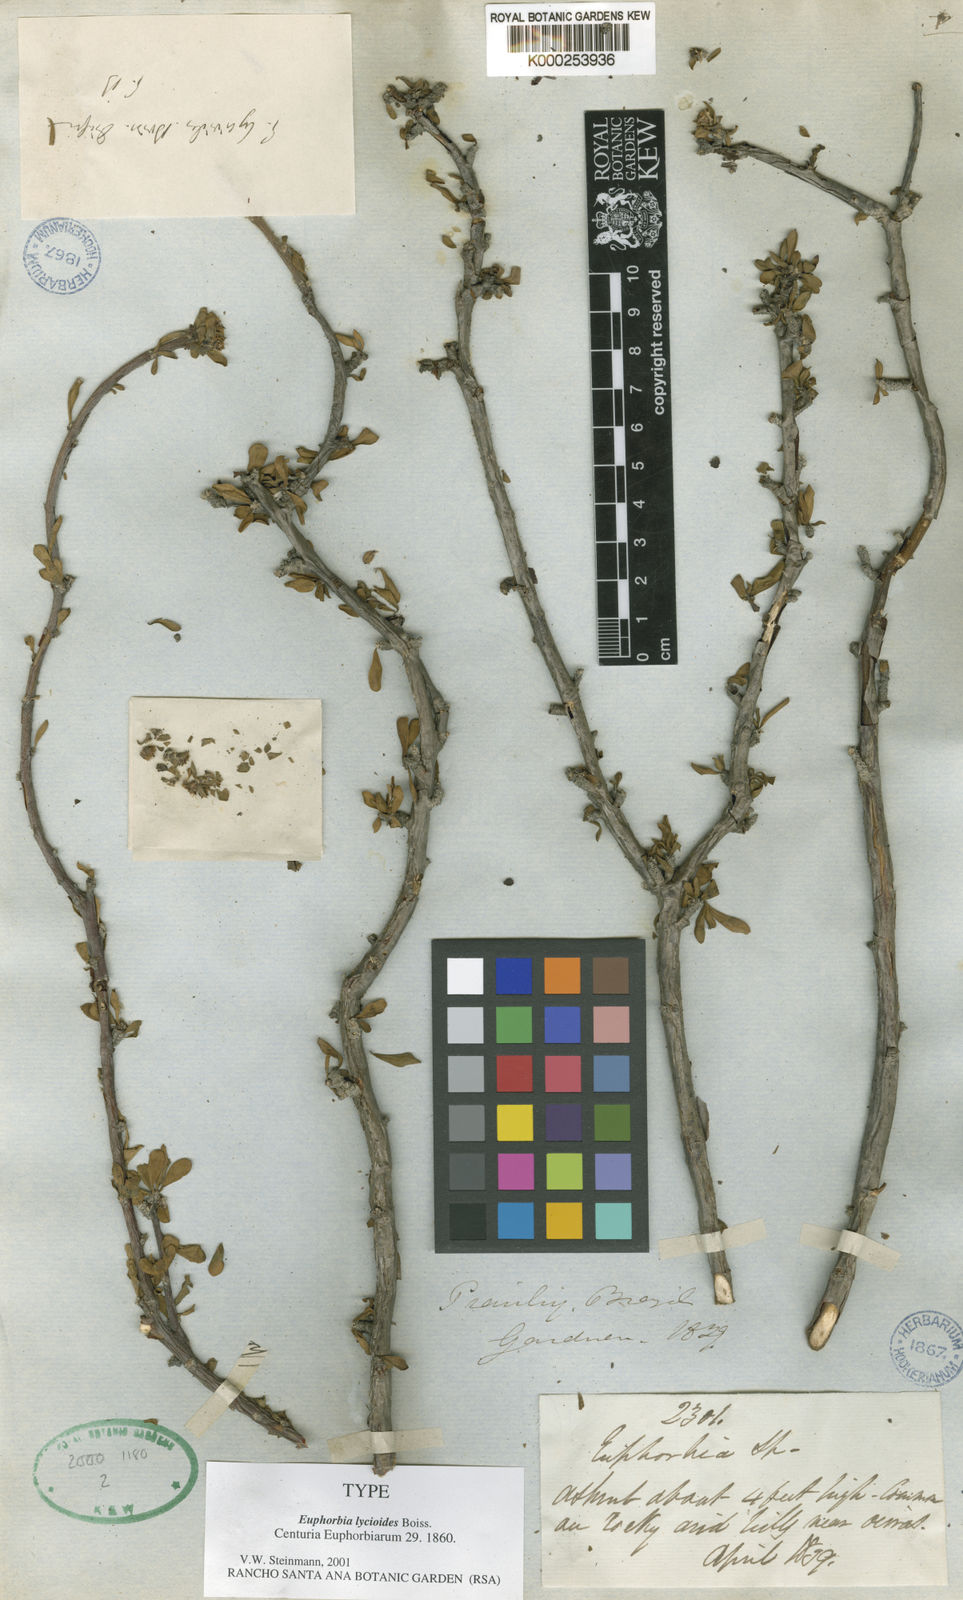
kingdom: Plantae
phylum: Tracheophyta
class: Magnoliopsida
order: Malpighiales
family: Euphorbiaceae
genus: Euphorbia
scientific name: Euphorbia lycioides
